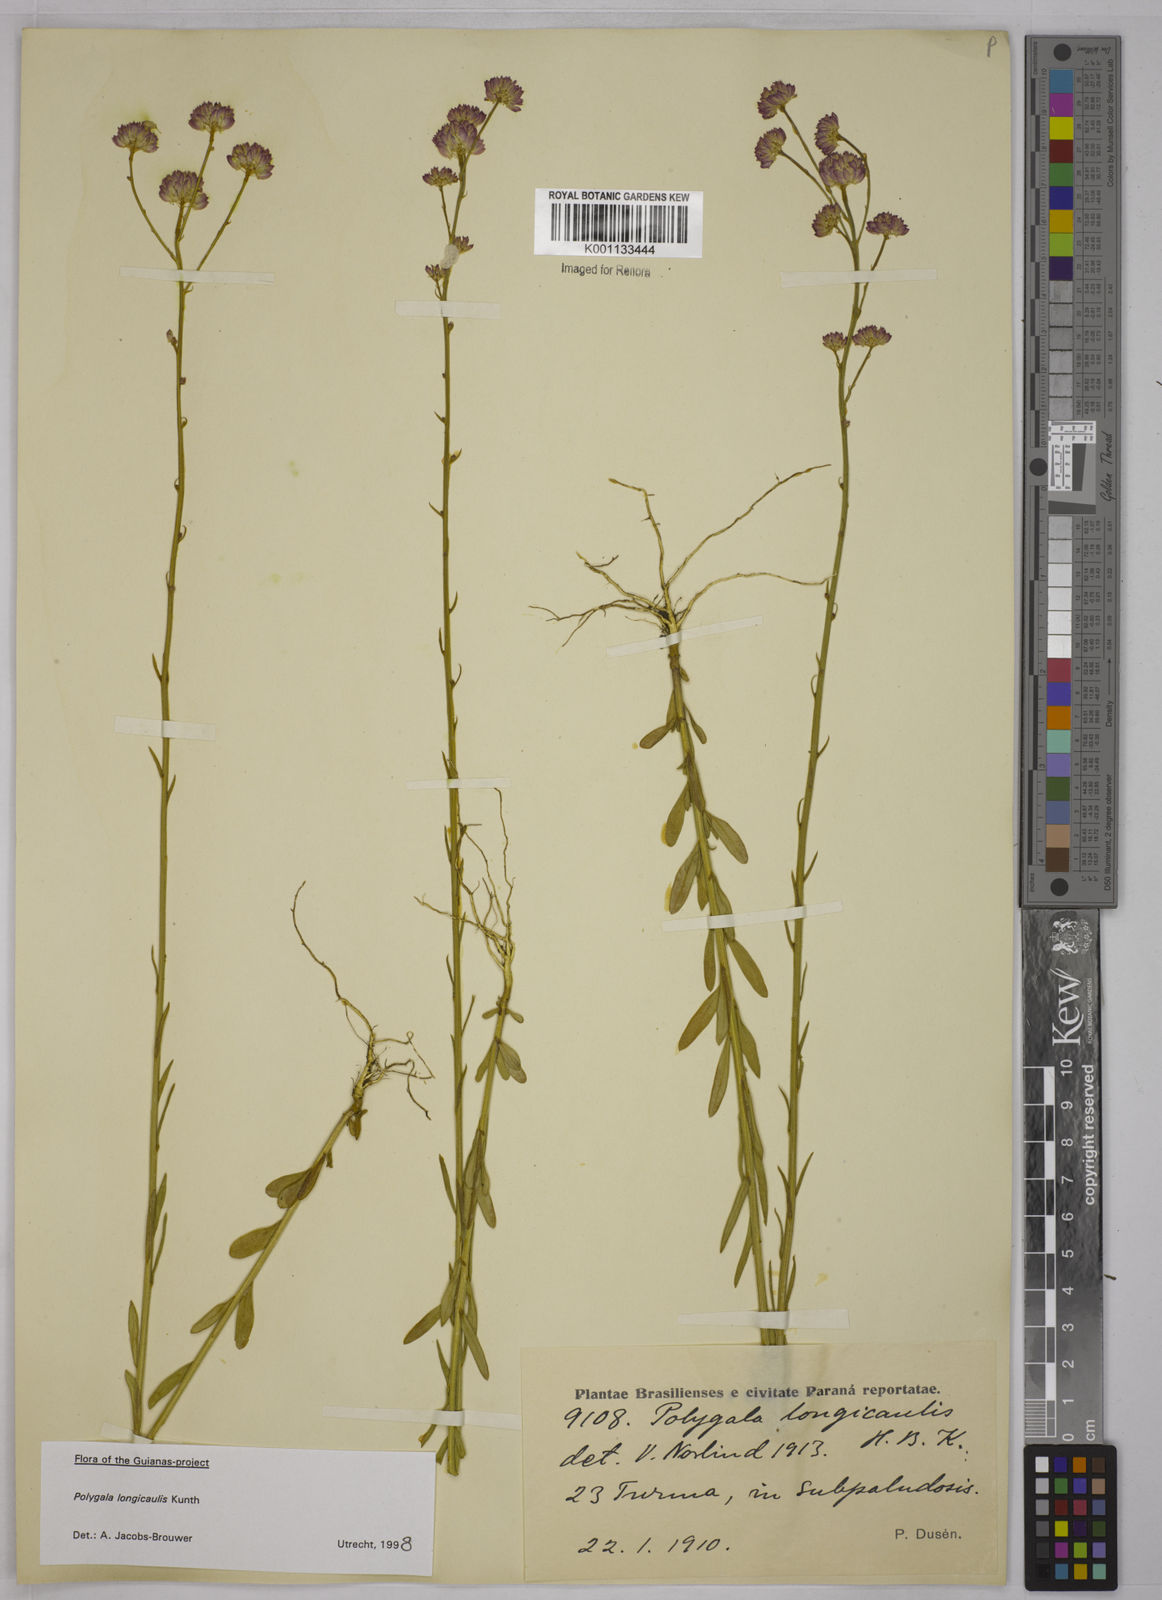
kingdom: Plantae
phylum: Tracheophyta
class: Magnoliopsida
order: Fabales
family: Polygalaceae
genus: Polygala
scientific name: Polygala longicaulis
